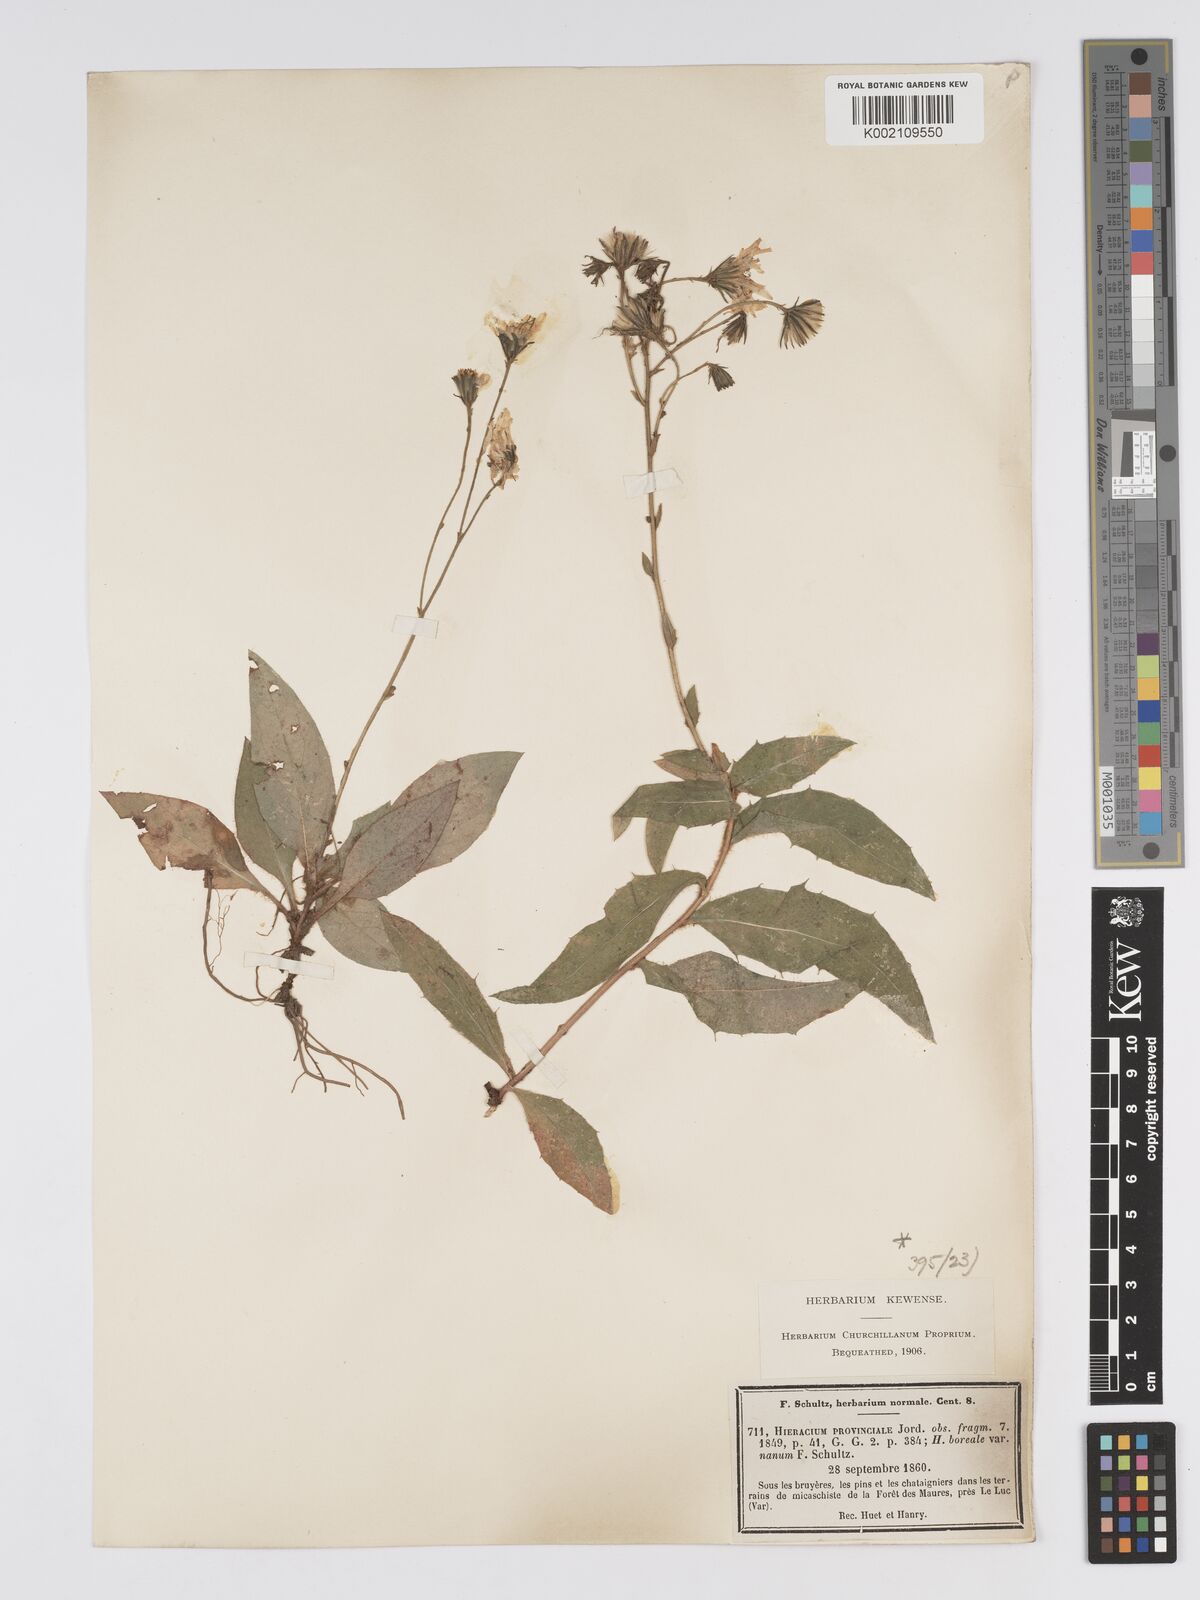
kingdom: Plantae
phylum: Tracheophyta
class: Magnoliopsida
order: Asterales
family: Asteraceae
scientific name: Asteraceae
